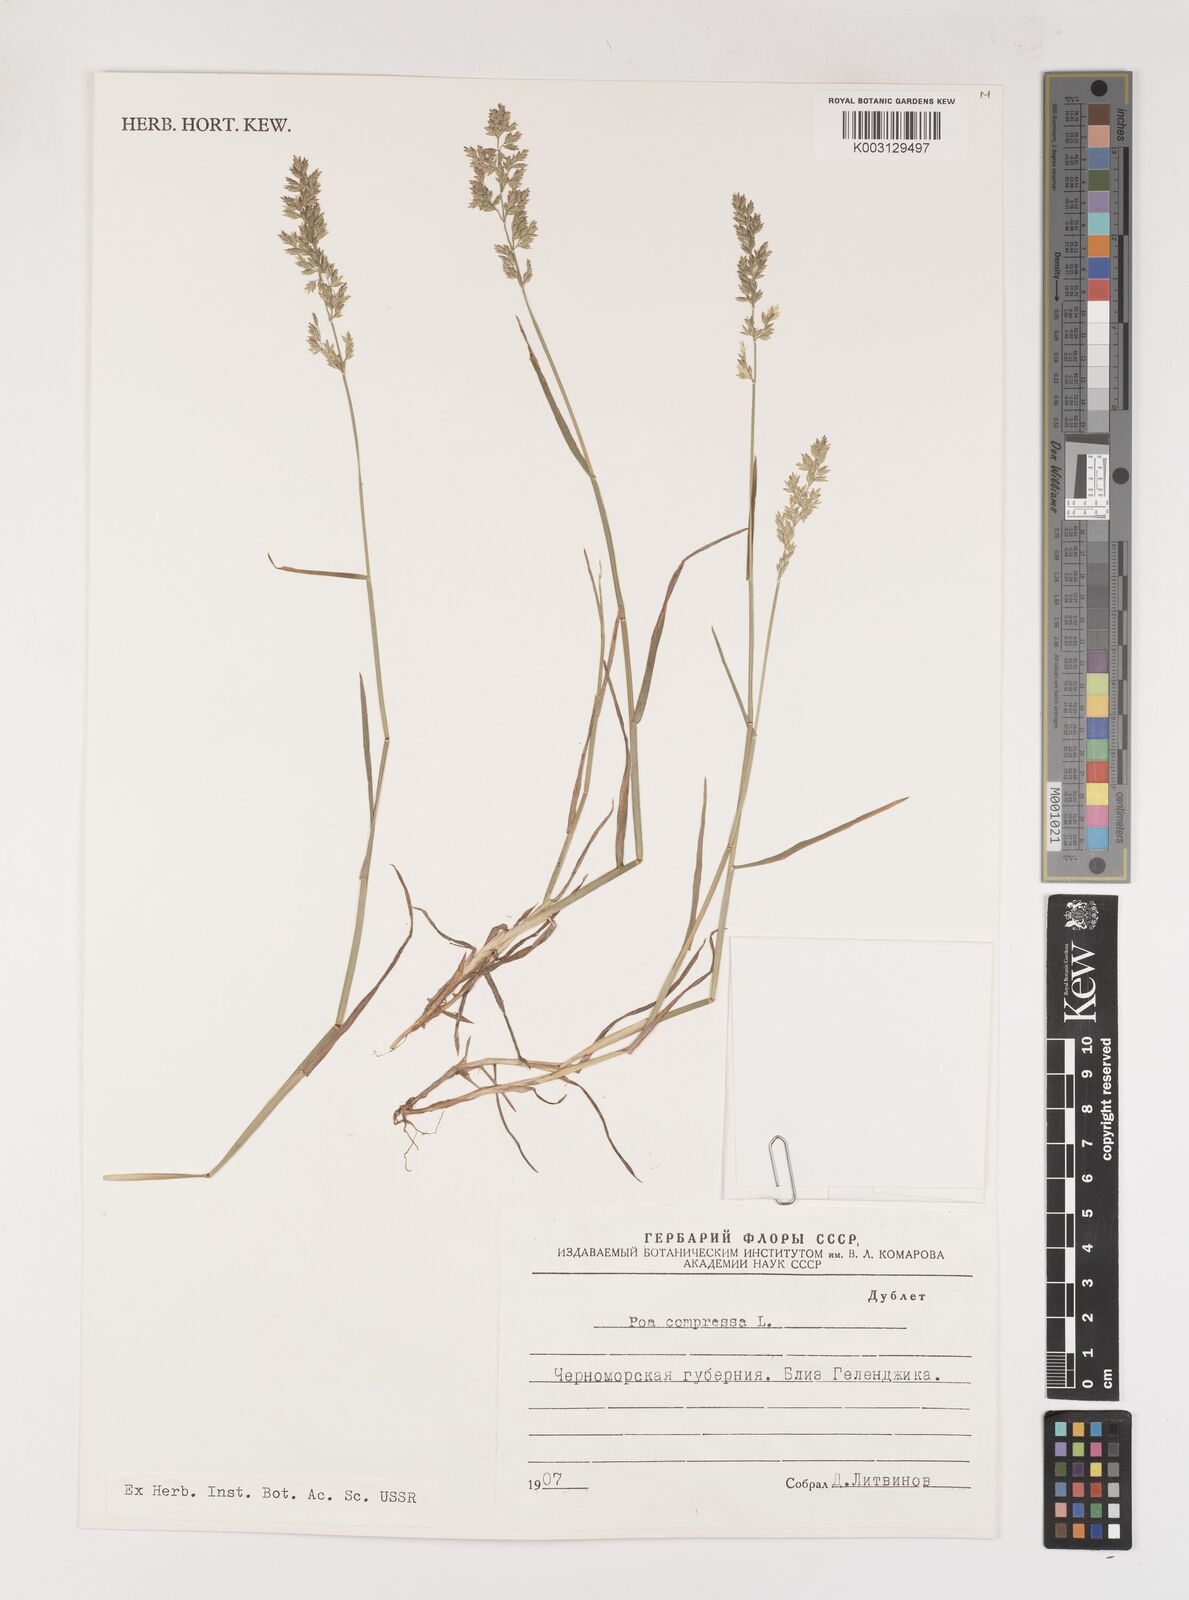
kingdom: Plantae
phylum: Tracheophyta
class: Liliopsida
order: Poales
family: Poaceae
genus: Poa
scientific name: Poa compressa
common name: Canada bluegrass
